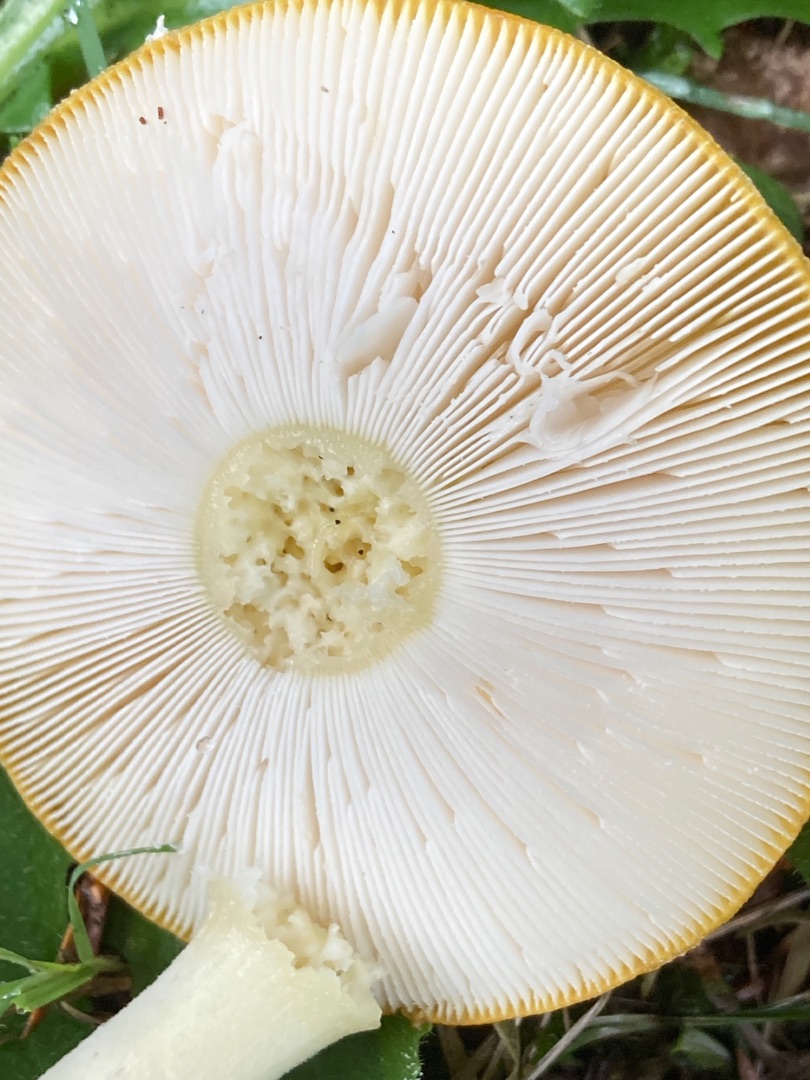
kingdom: Fungi
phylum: Basidiomycota
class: Agaricomycetes
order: Agaricales
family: Amanitaceae
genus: Amanita
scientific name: Amanita muscaria
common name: Rød fluesvamp
